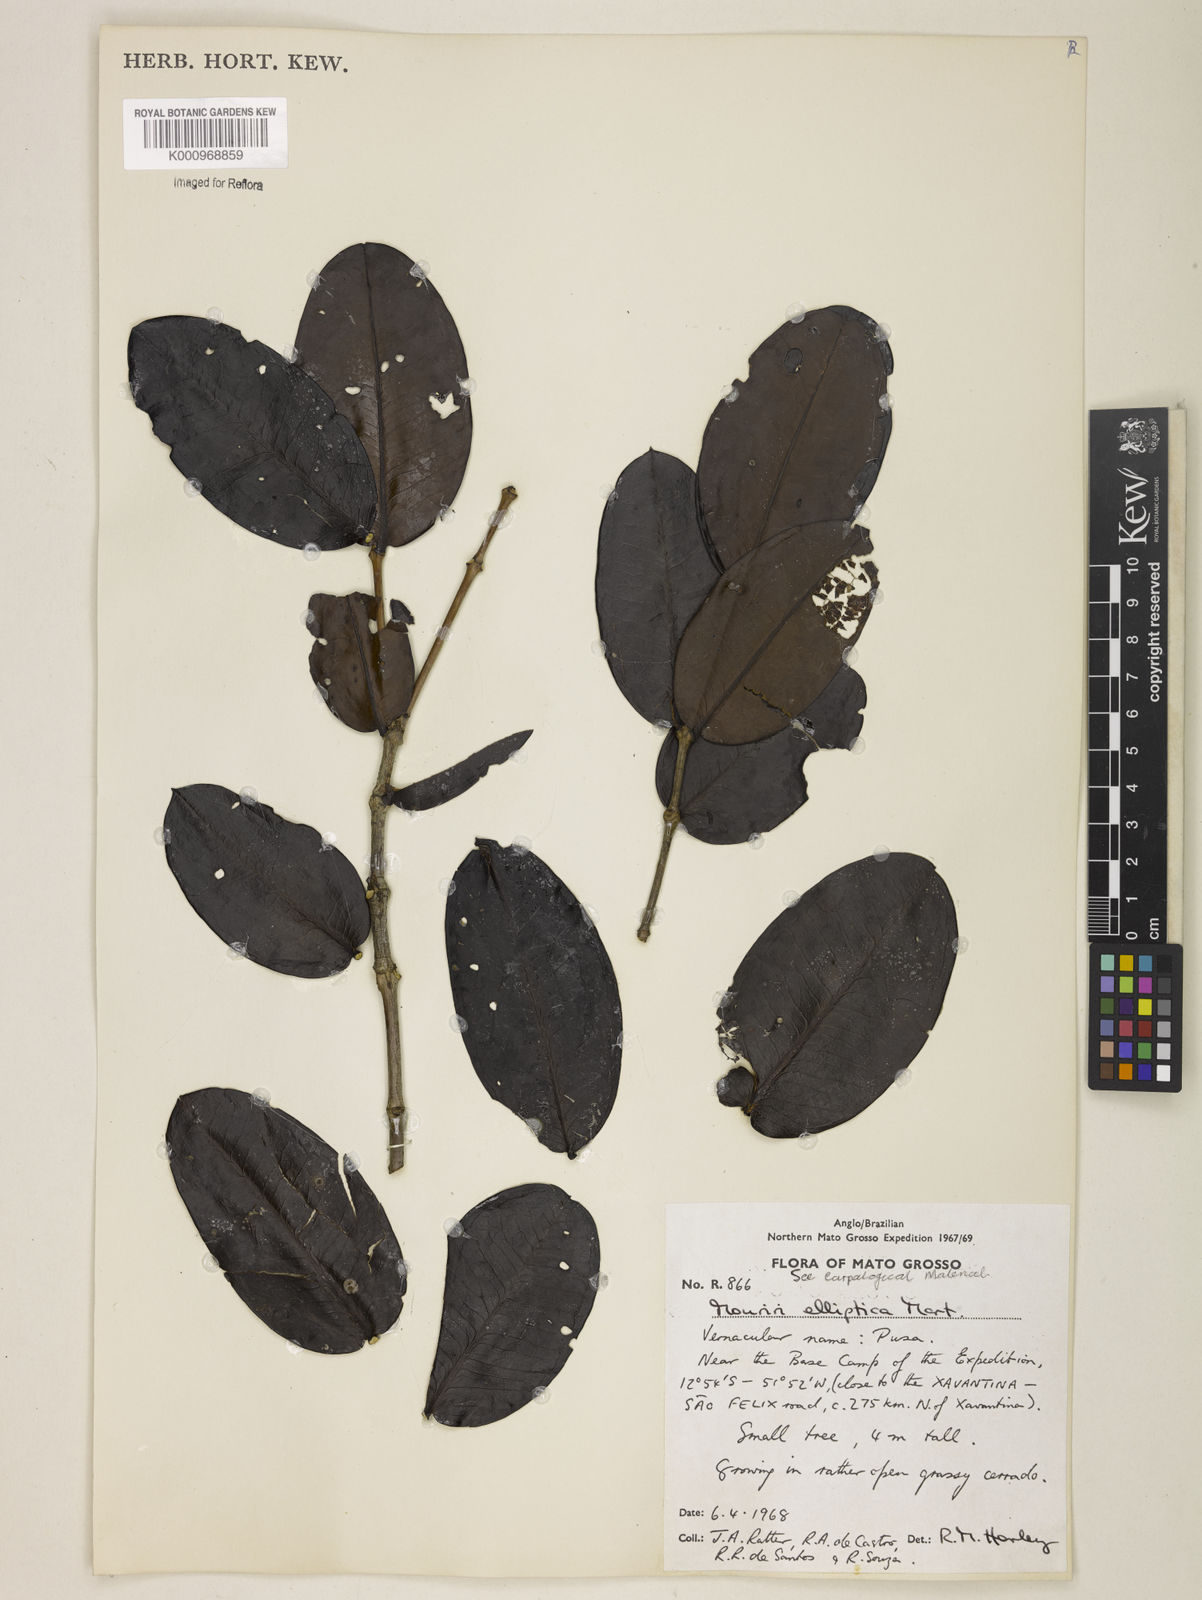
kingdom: Plantae
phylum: Tracheophyta
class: Magnoliopsida
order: Myrtales
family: Melastomataceae
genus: Mouriri
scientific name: Mouriri elliptica
